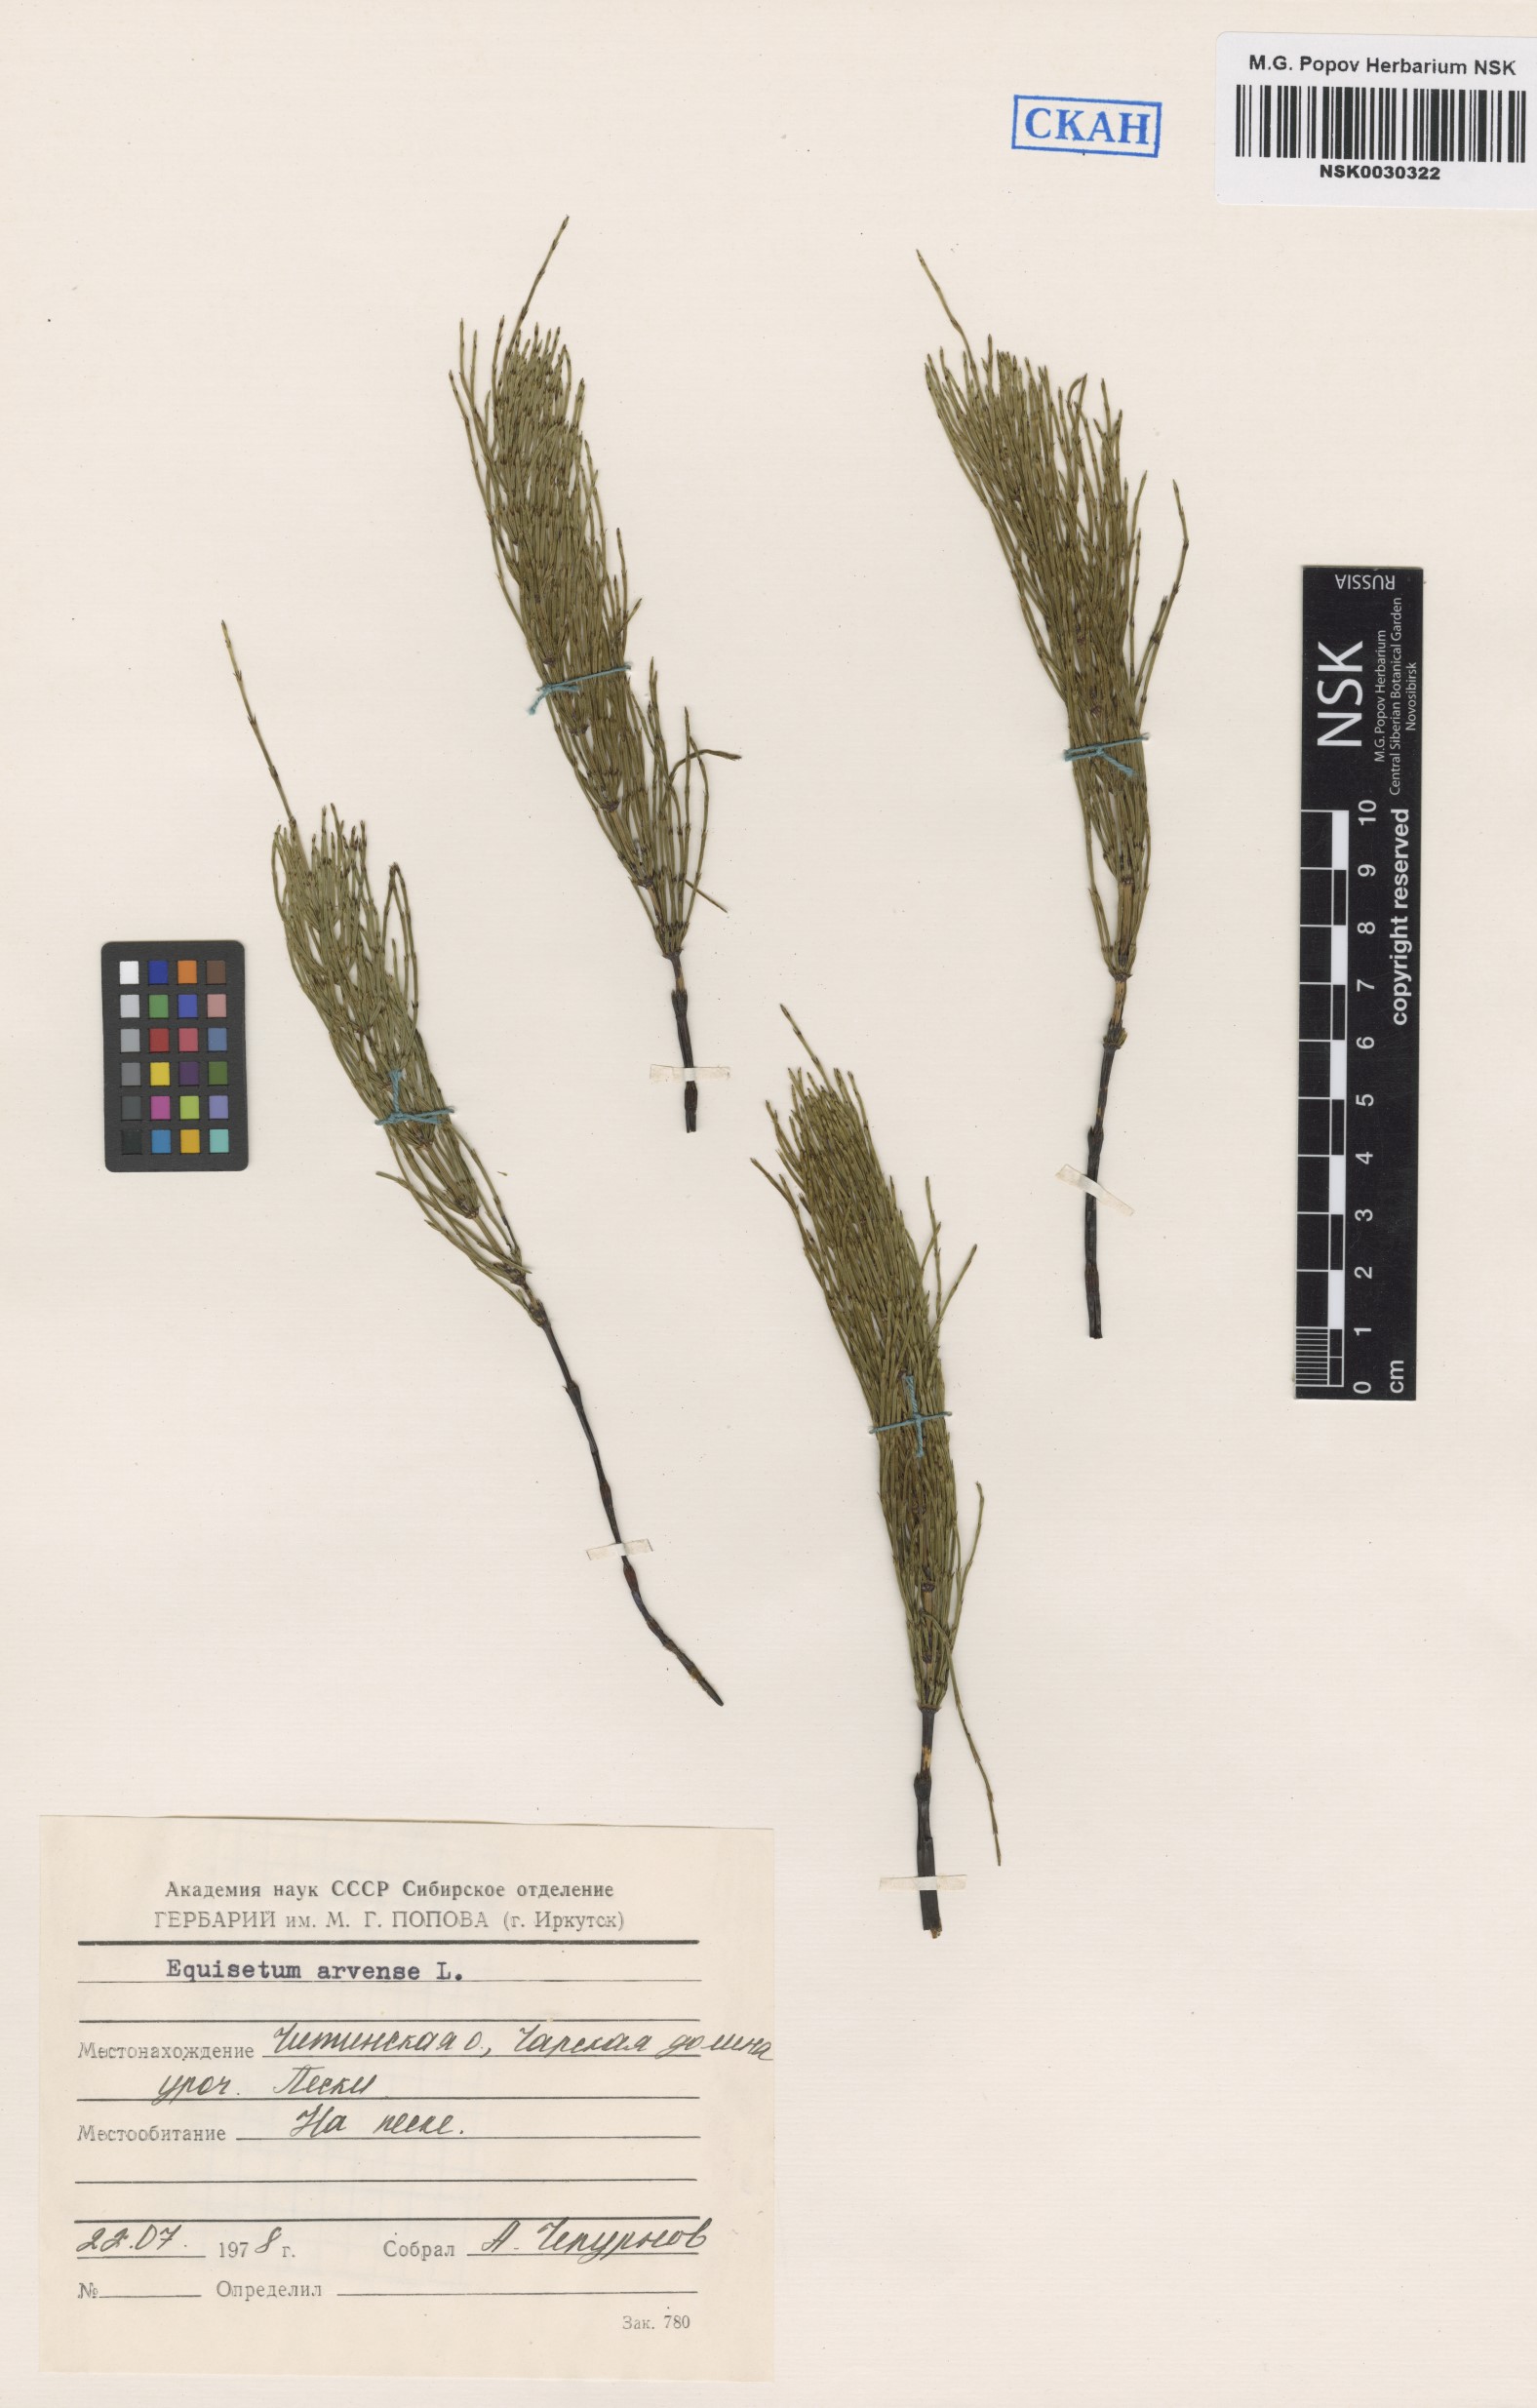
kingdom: Plantae
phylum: Tracheophyta
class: Polypodiopsida
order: Equisetales
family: Equisetaceae
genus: Equisetum
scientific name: Equisetum arvense
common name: Field horsetail
